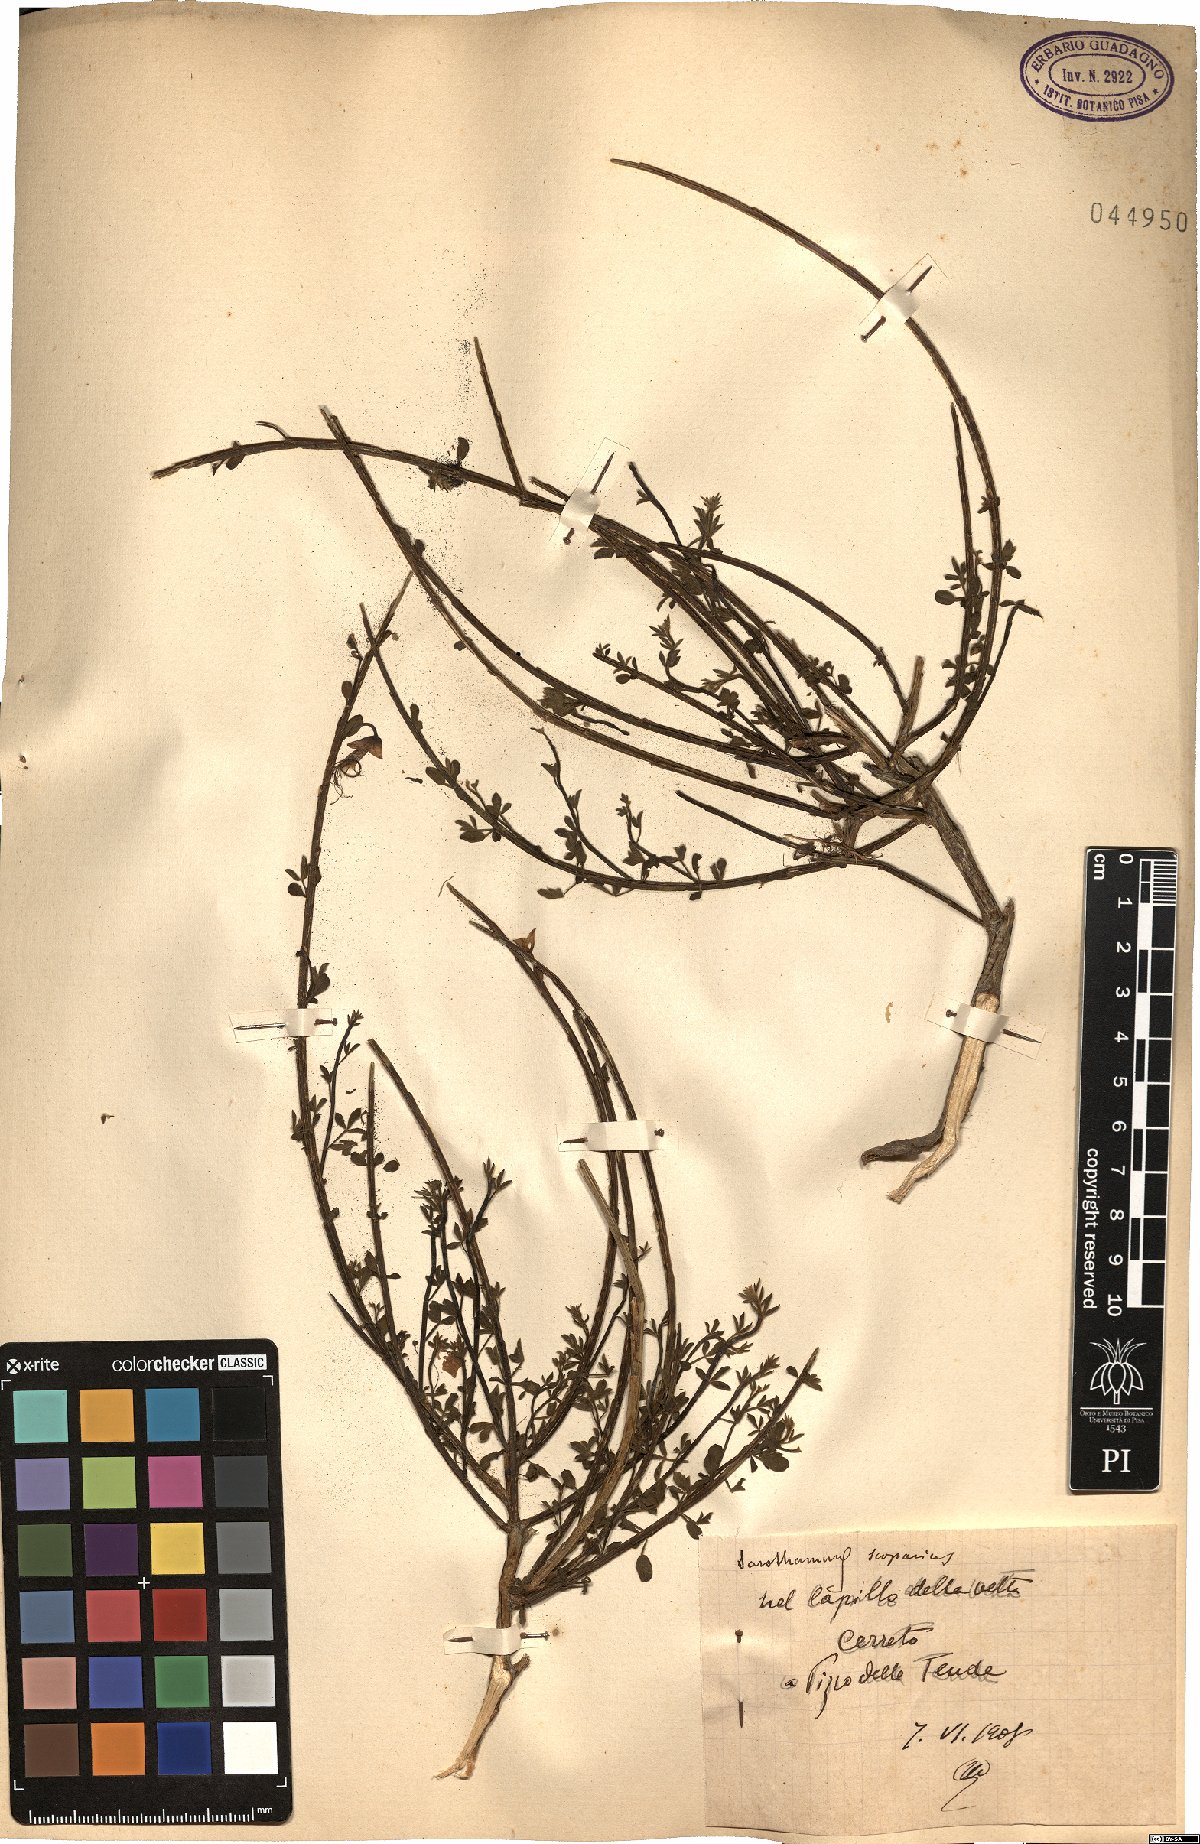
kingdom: Plantae
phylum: Tracheophyta
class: Magnoliopsida
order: Fabales
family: Fabaceae
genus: Cytisus
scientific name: Cytisus scoparius
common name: Scotch broom
